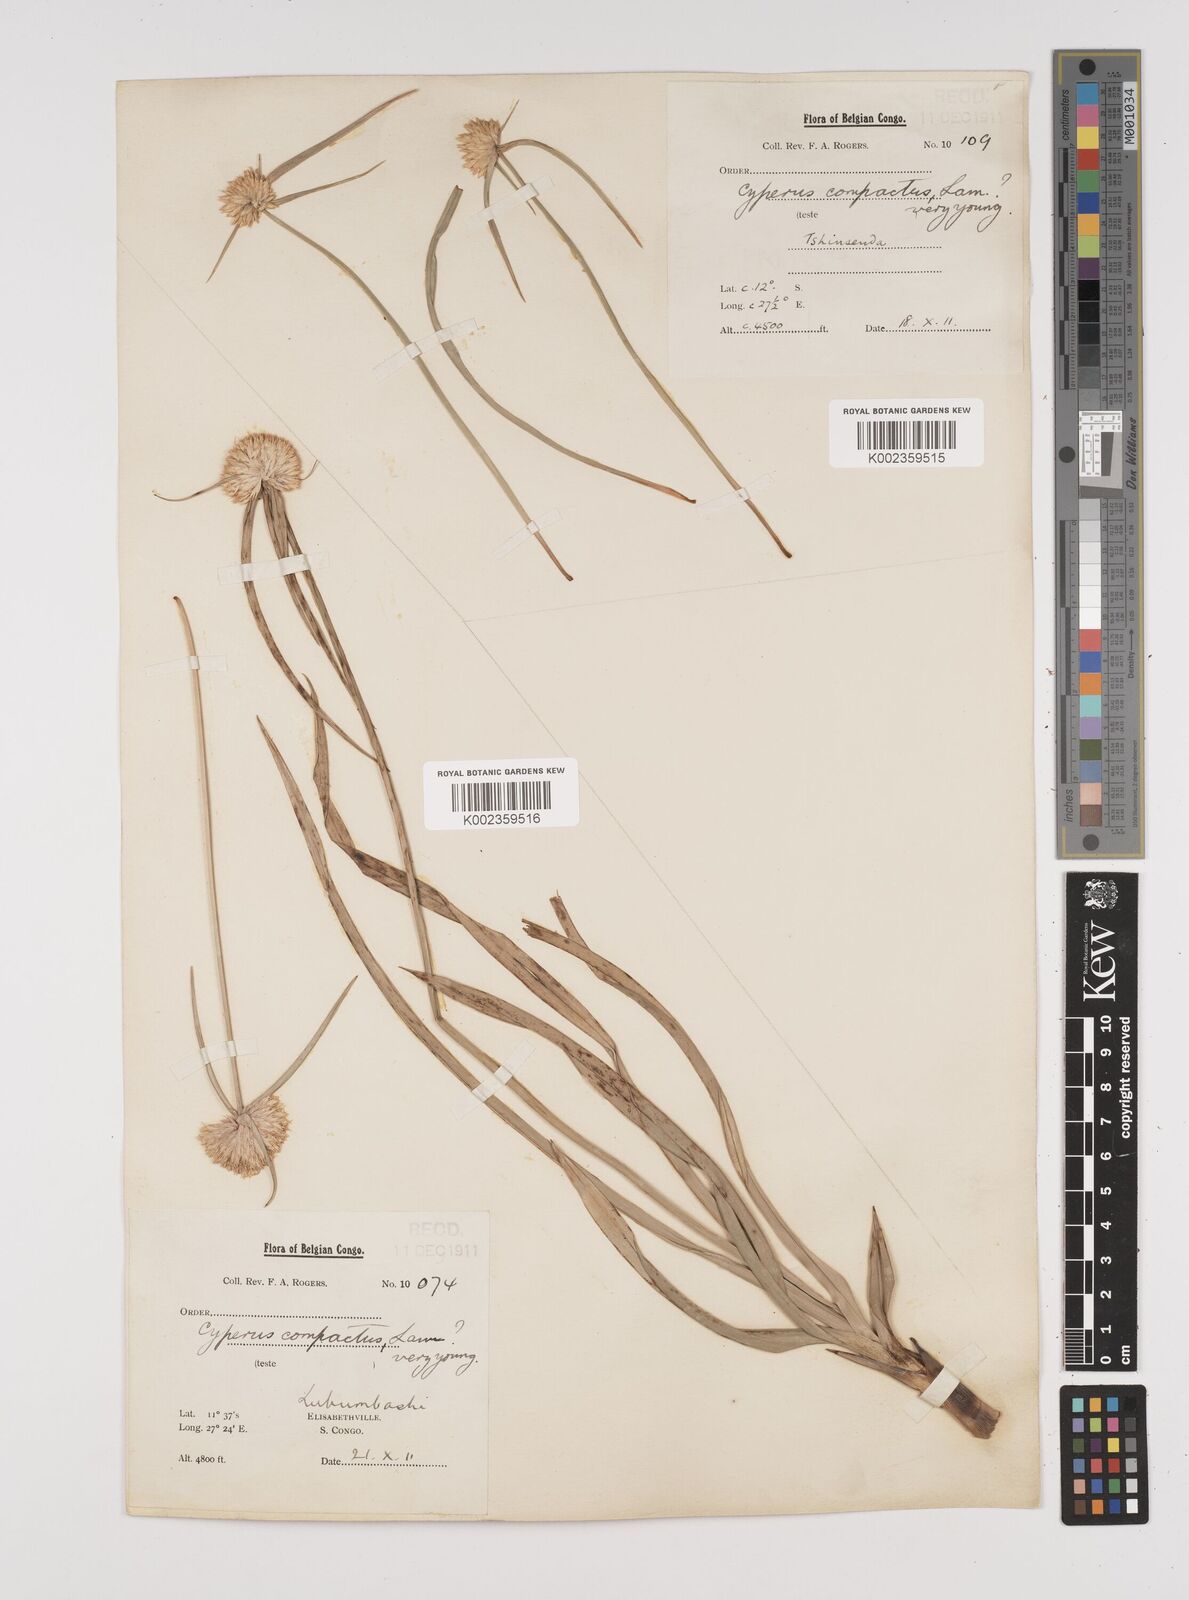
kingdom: Plantae
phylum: Tracheophyta
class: Liliopsida
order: Poales
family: Cyperaceae
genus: Cyperus
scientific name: Cyperus angolensis
